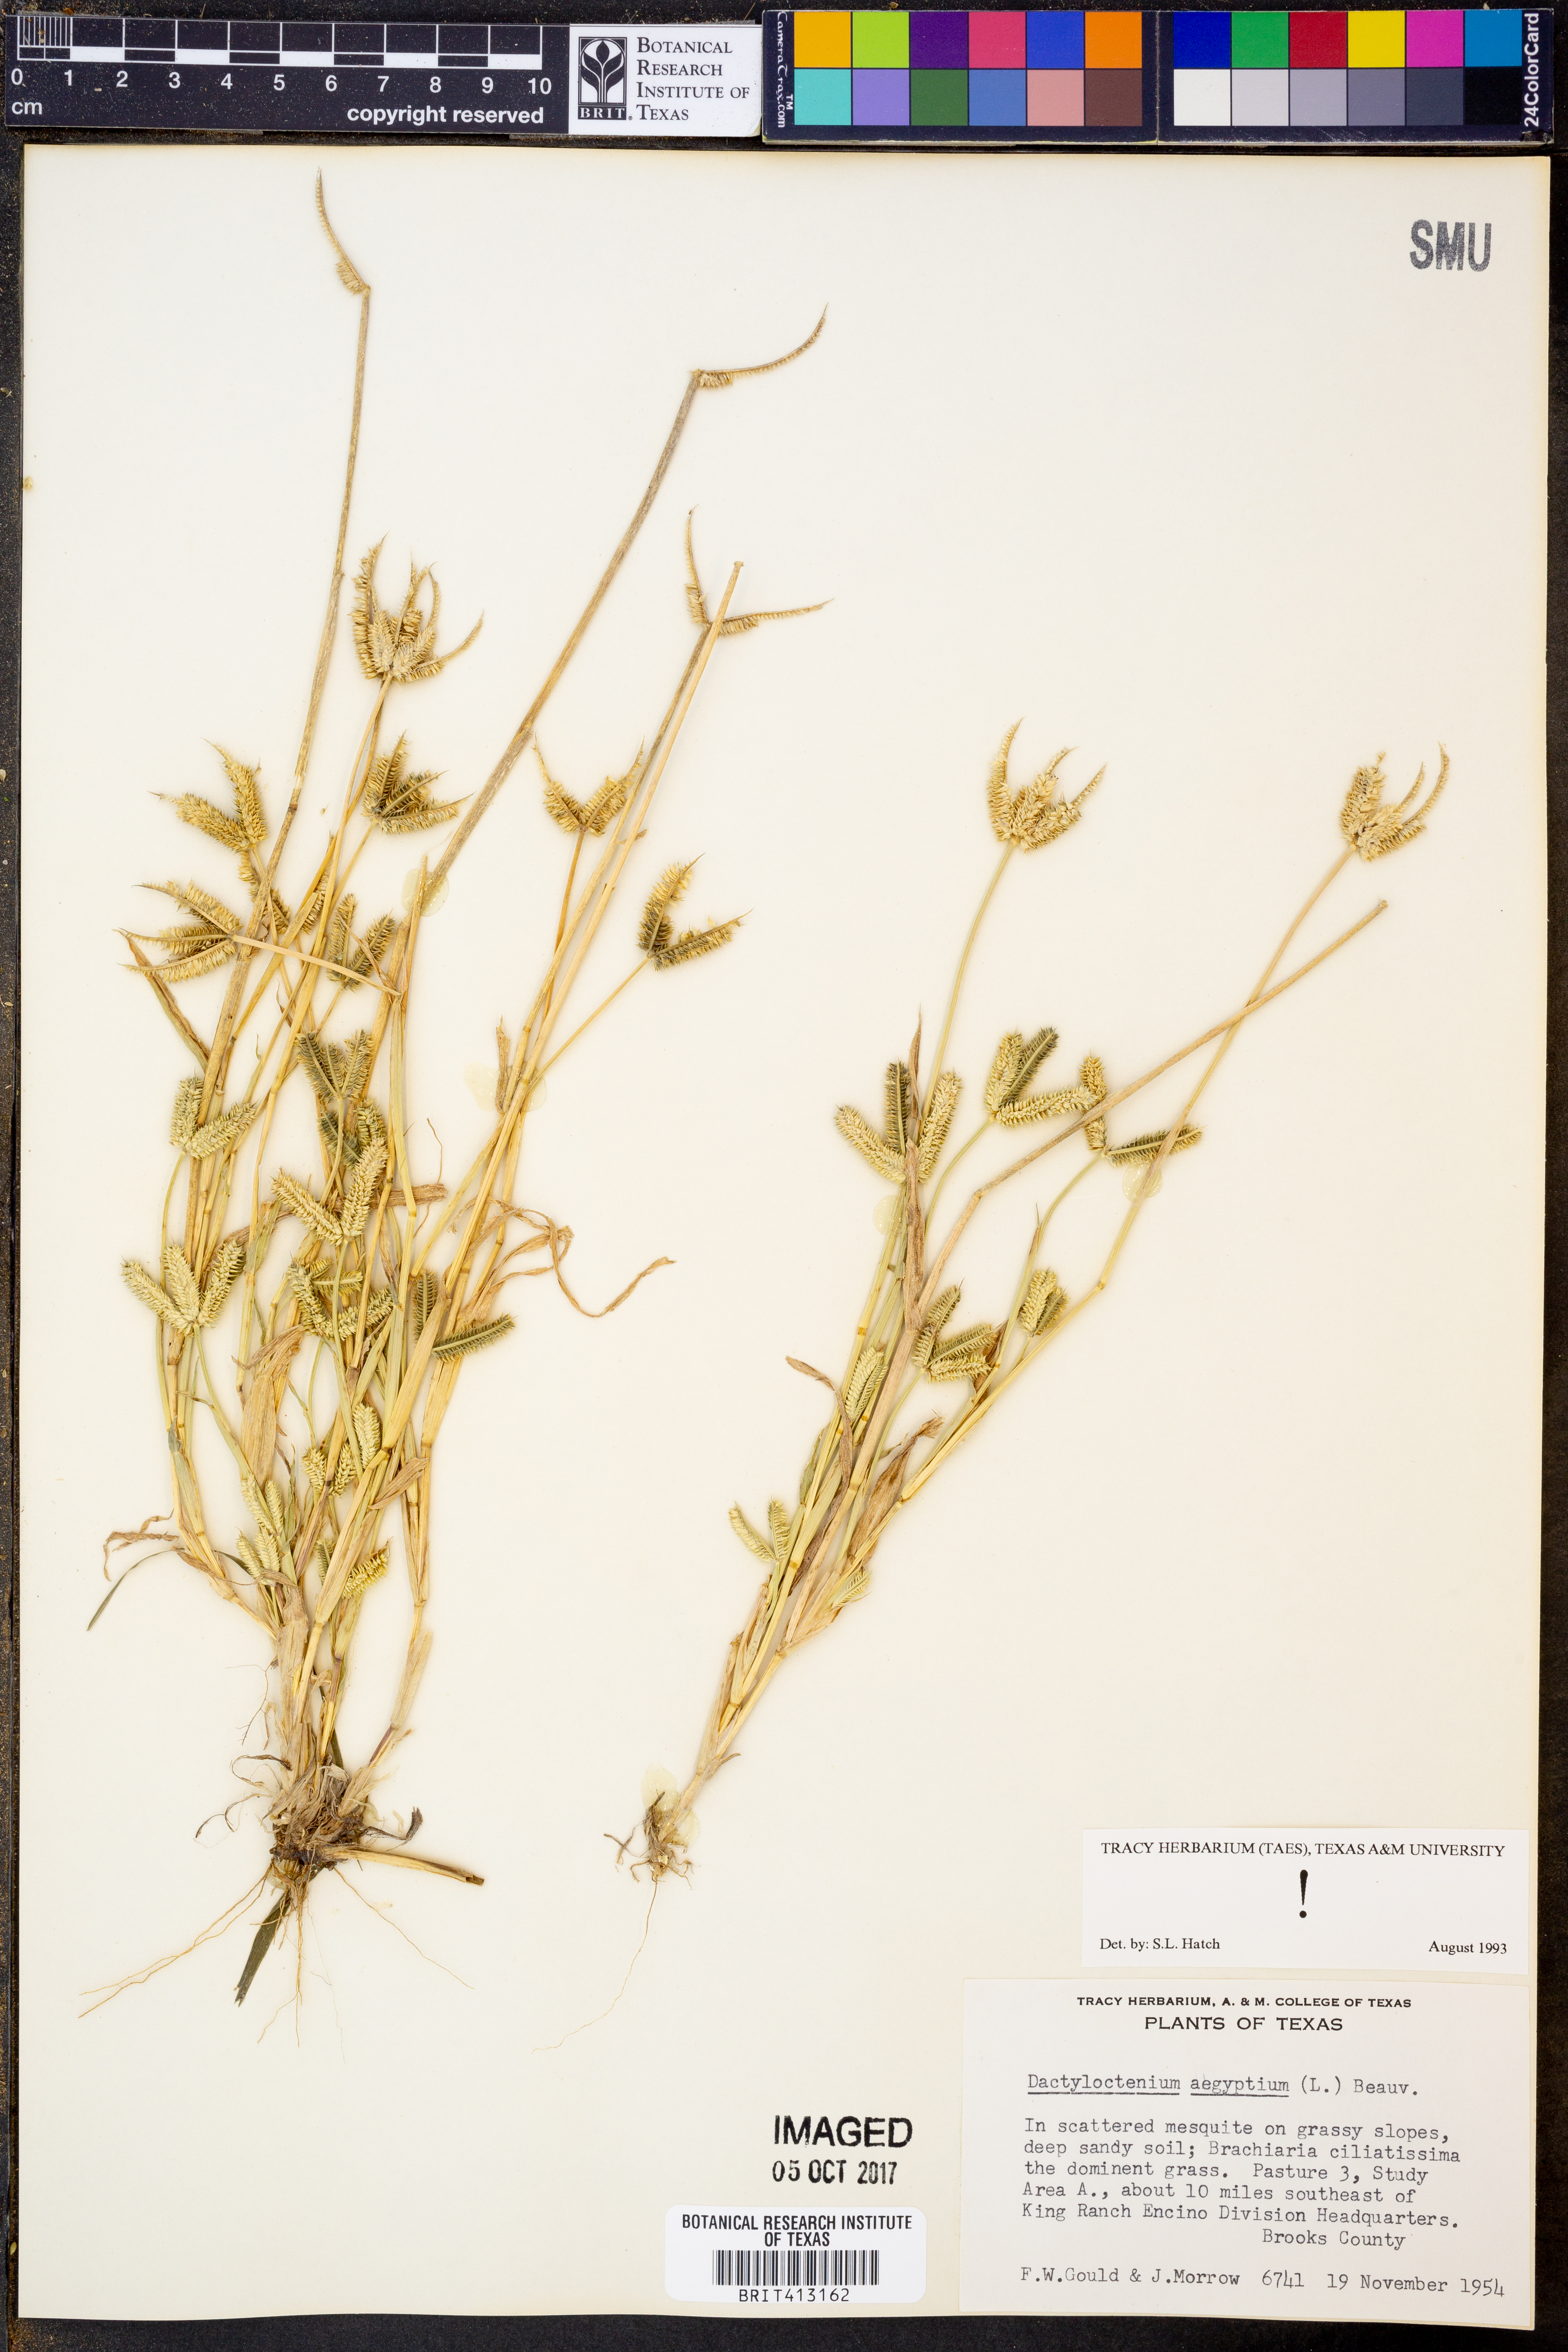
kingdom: Plantae
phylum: Tracheophyta
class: Liliopsida
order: Poales
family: Poaceae
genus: Dactyloctenium
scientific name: Dactyloctenium aegyptium
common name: Egyptian grass
